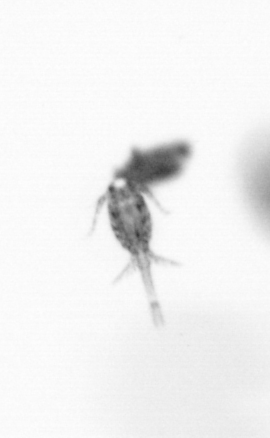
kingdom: Animalia
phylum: Arthropoda
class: Copepoda
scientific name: Copepoda
